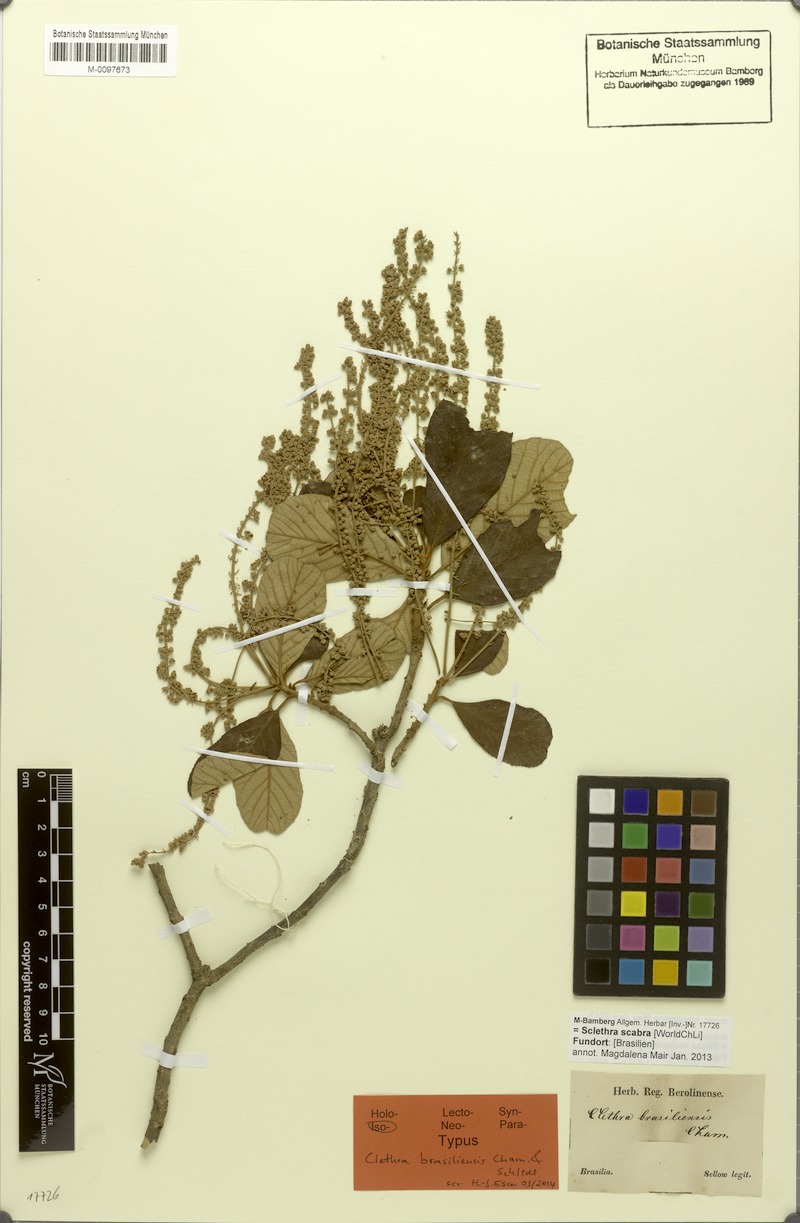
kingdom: Plantae
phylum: Tracheophyta
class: Magnoliopsida
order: Ericales
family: Clethraceae
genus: Clethra
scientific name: Clethra scabra
